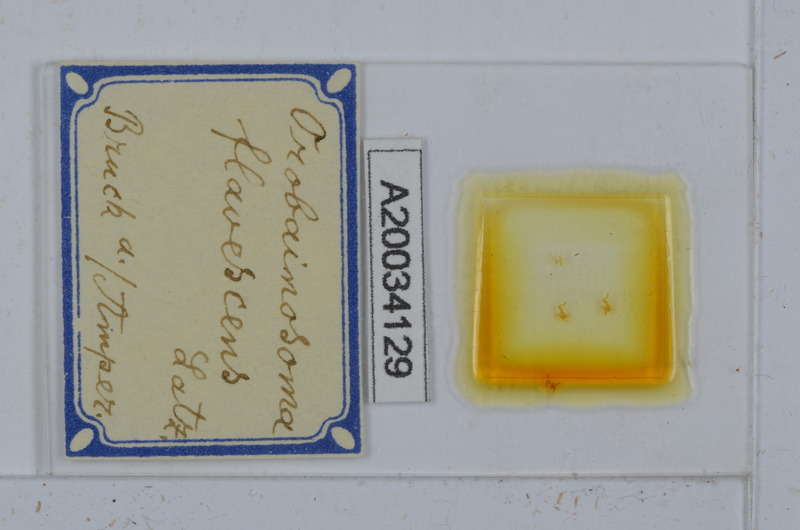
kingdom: Animalia
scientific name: Animalia
